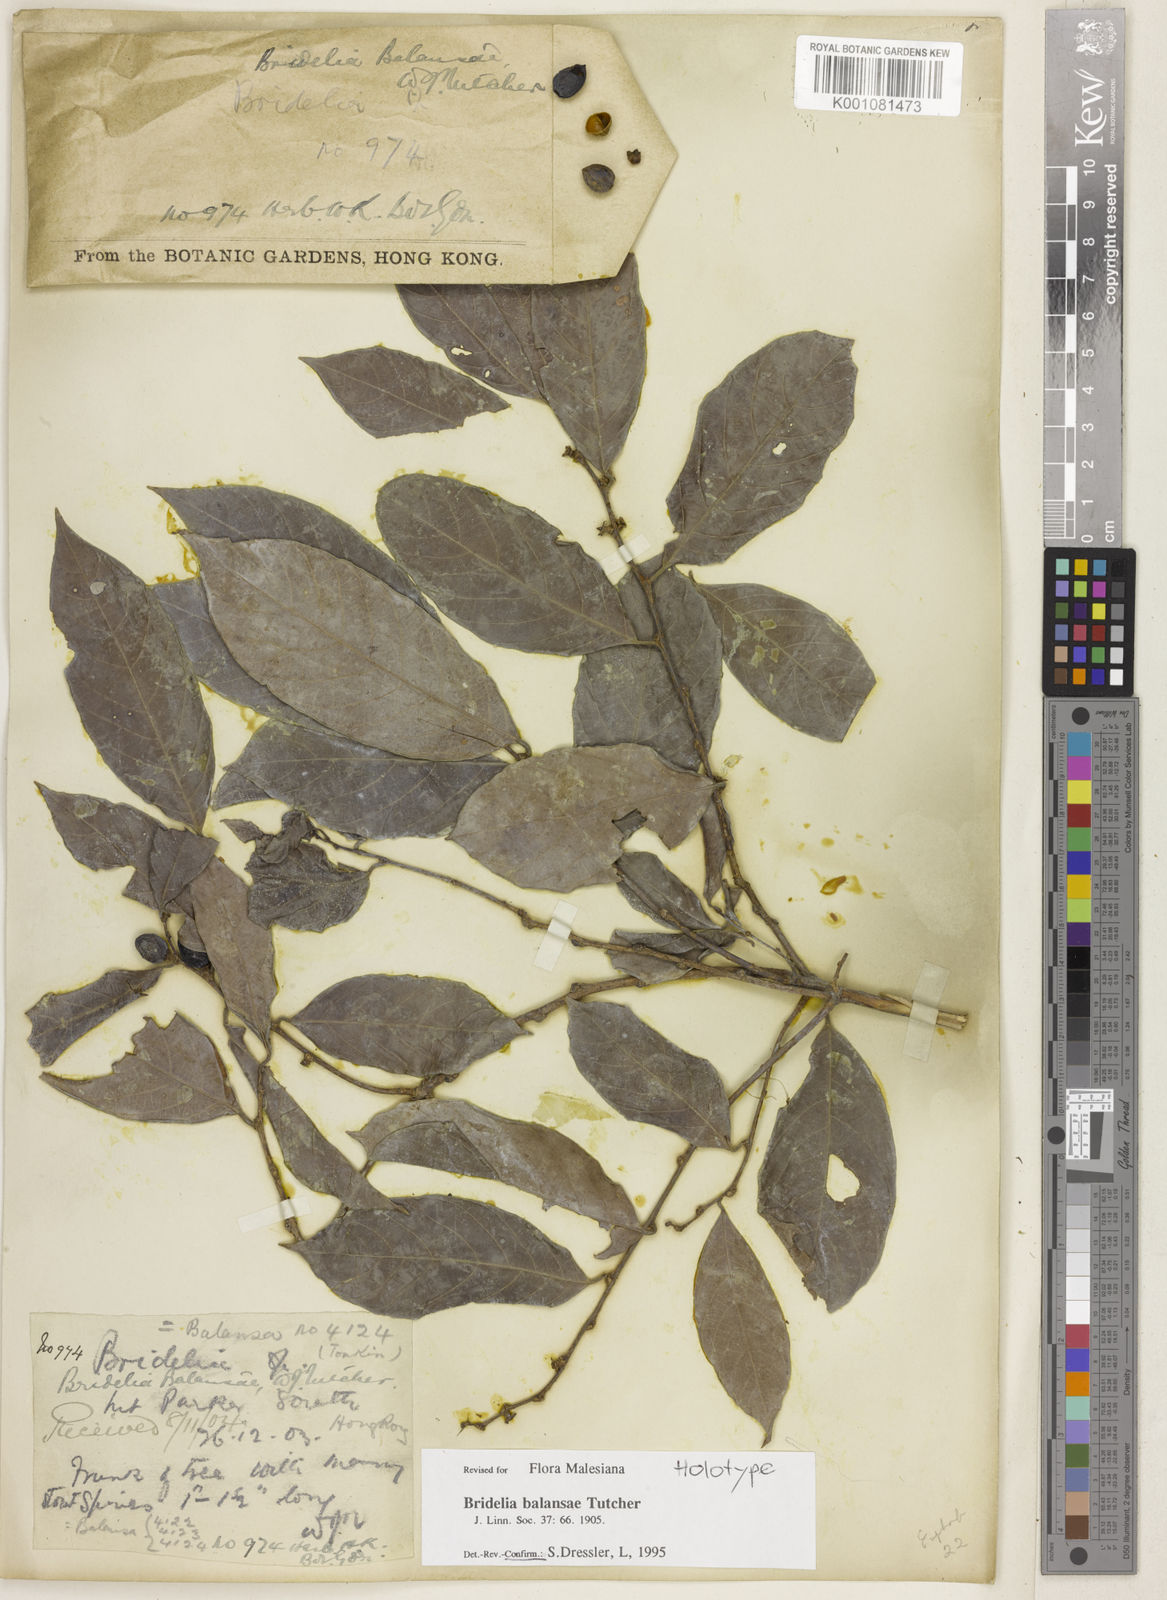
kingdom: Plantae
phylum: Tracheophyta
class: Magnoliopsida
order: Malpighiales
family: Phyllanthaceae
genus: Bridelia
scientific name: Bridelia balansae
